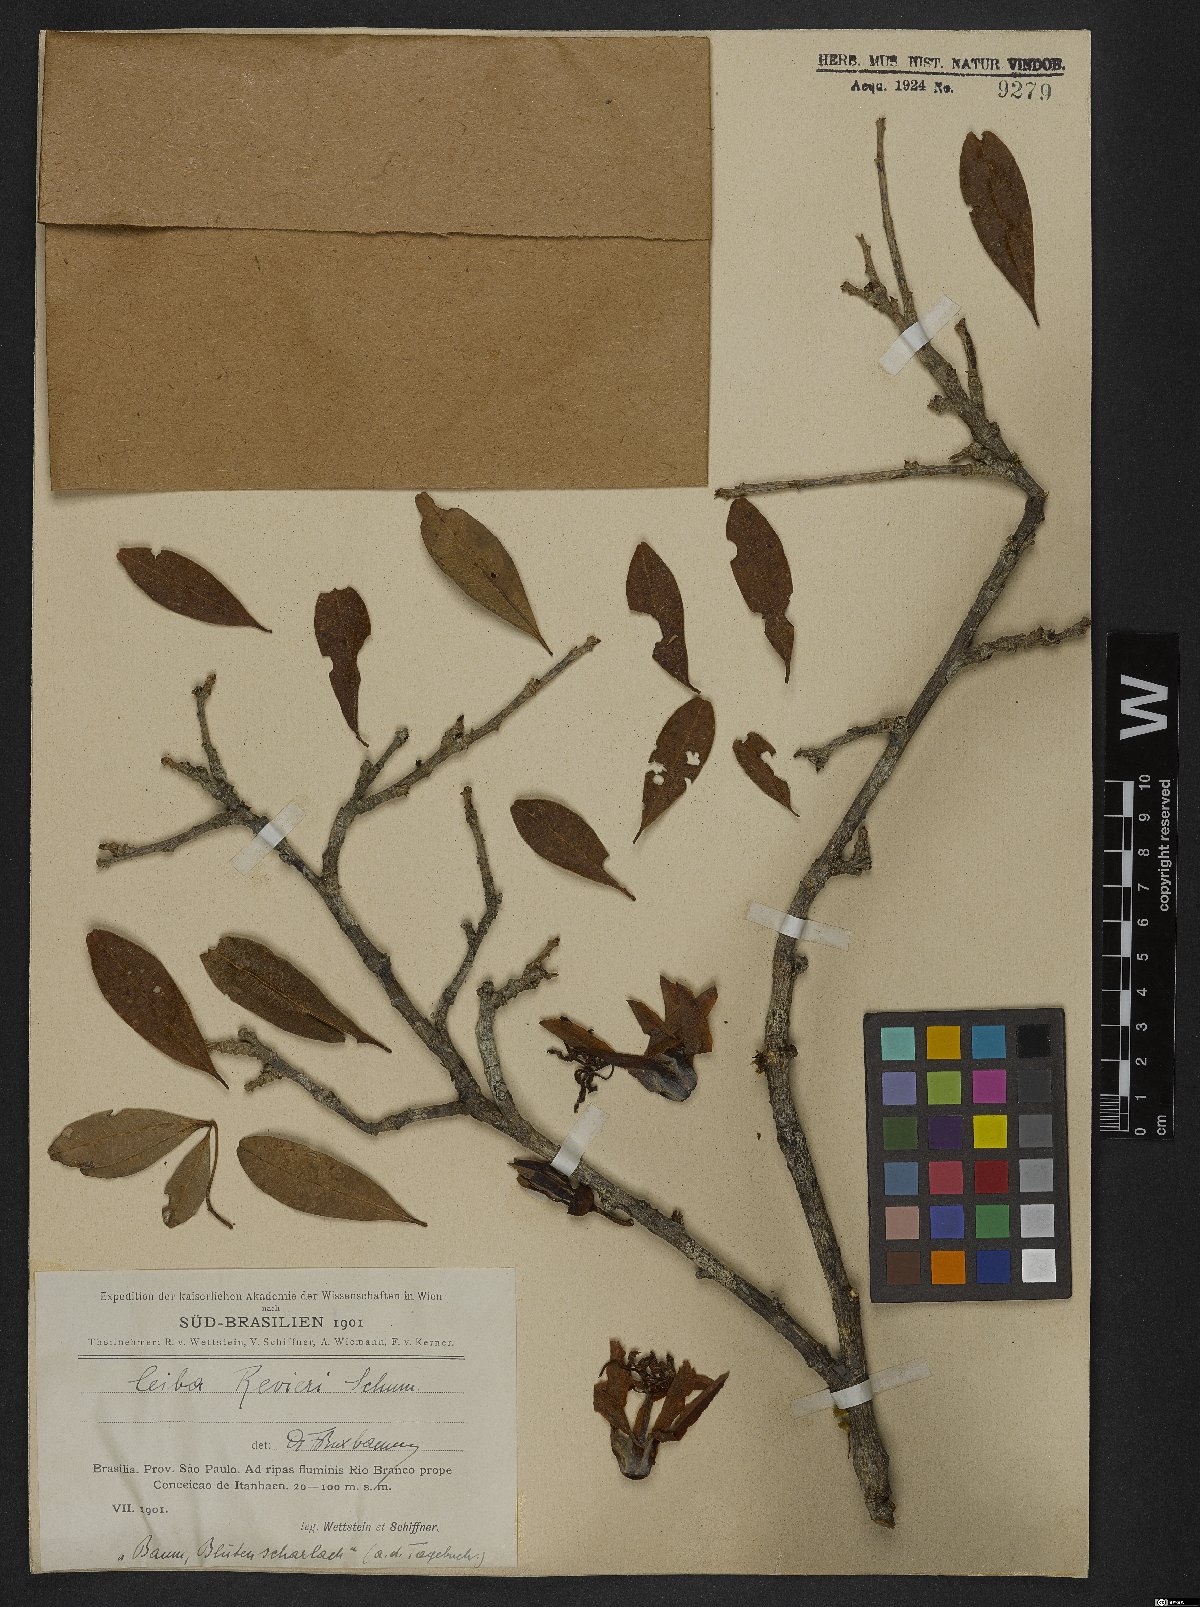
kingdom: Plantae
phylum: Tracheophyta
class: Magnoliopsida
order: Malvales
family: Malvaceae
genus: Spirotheca
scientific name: Spirotheca rivieri
